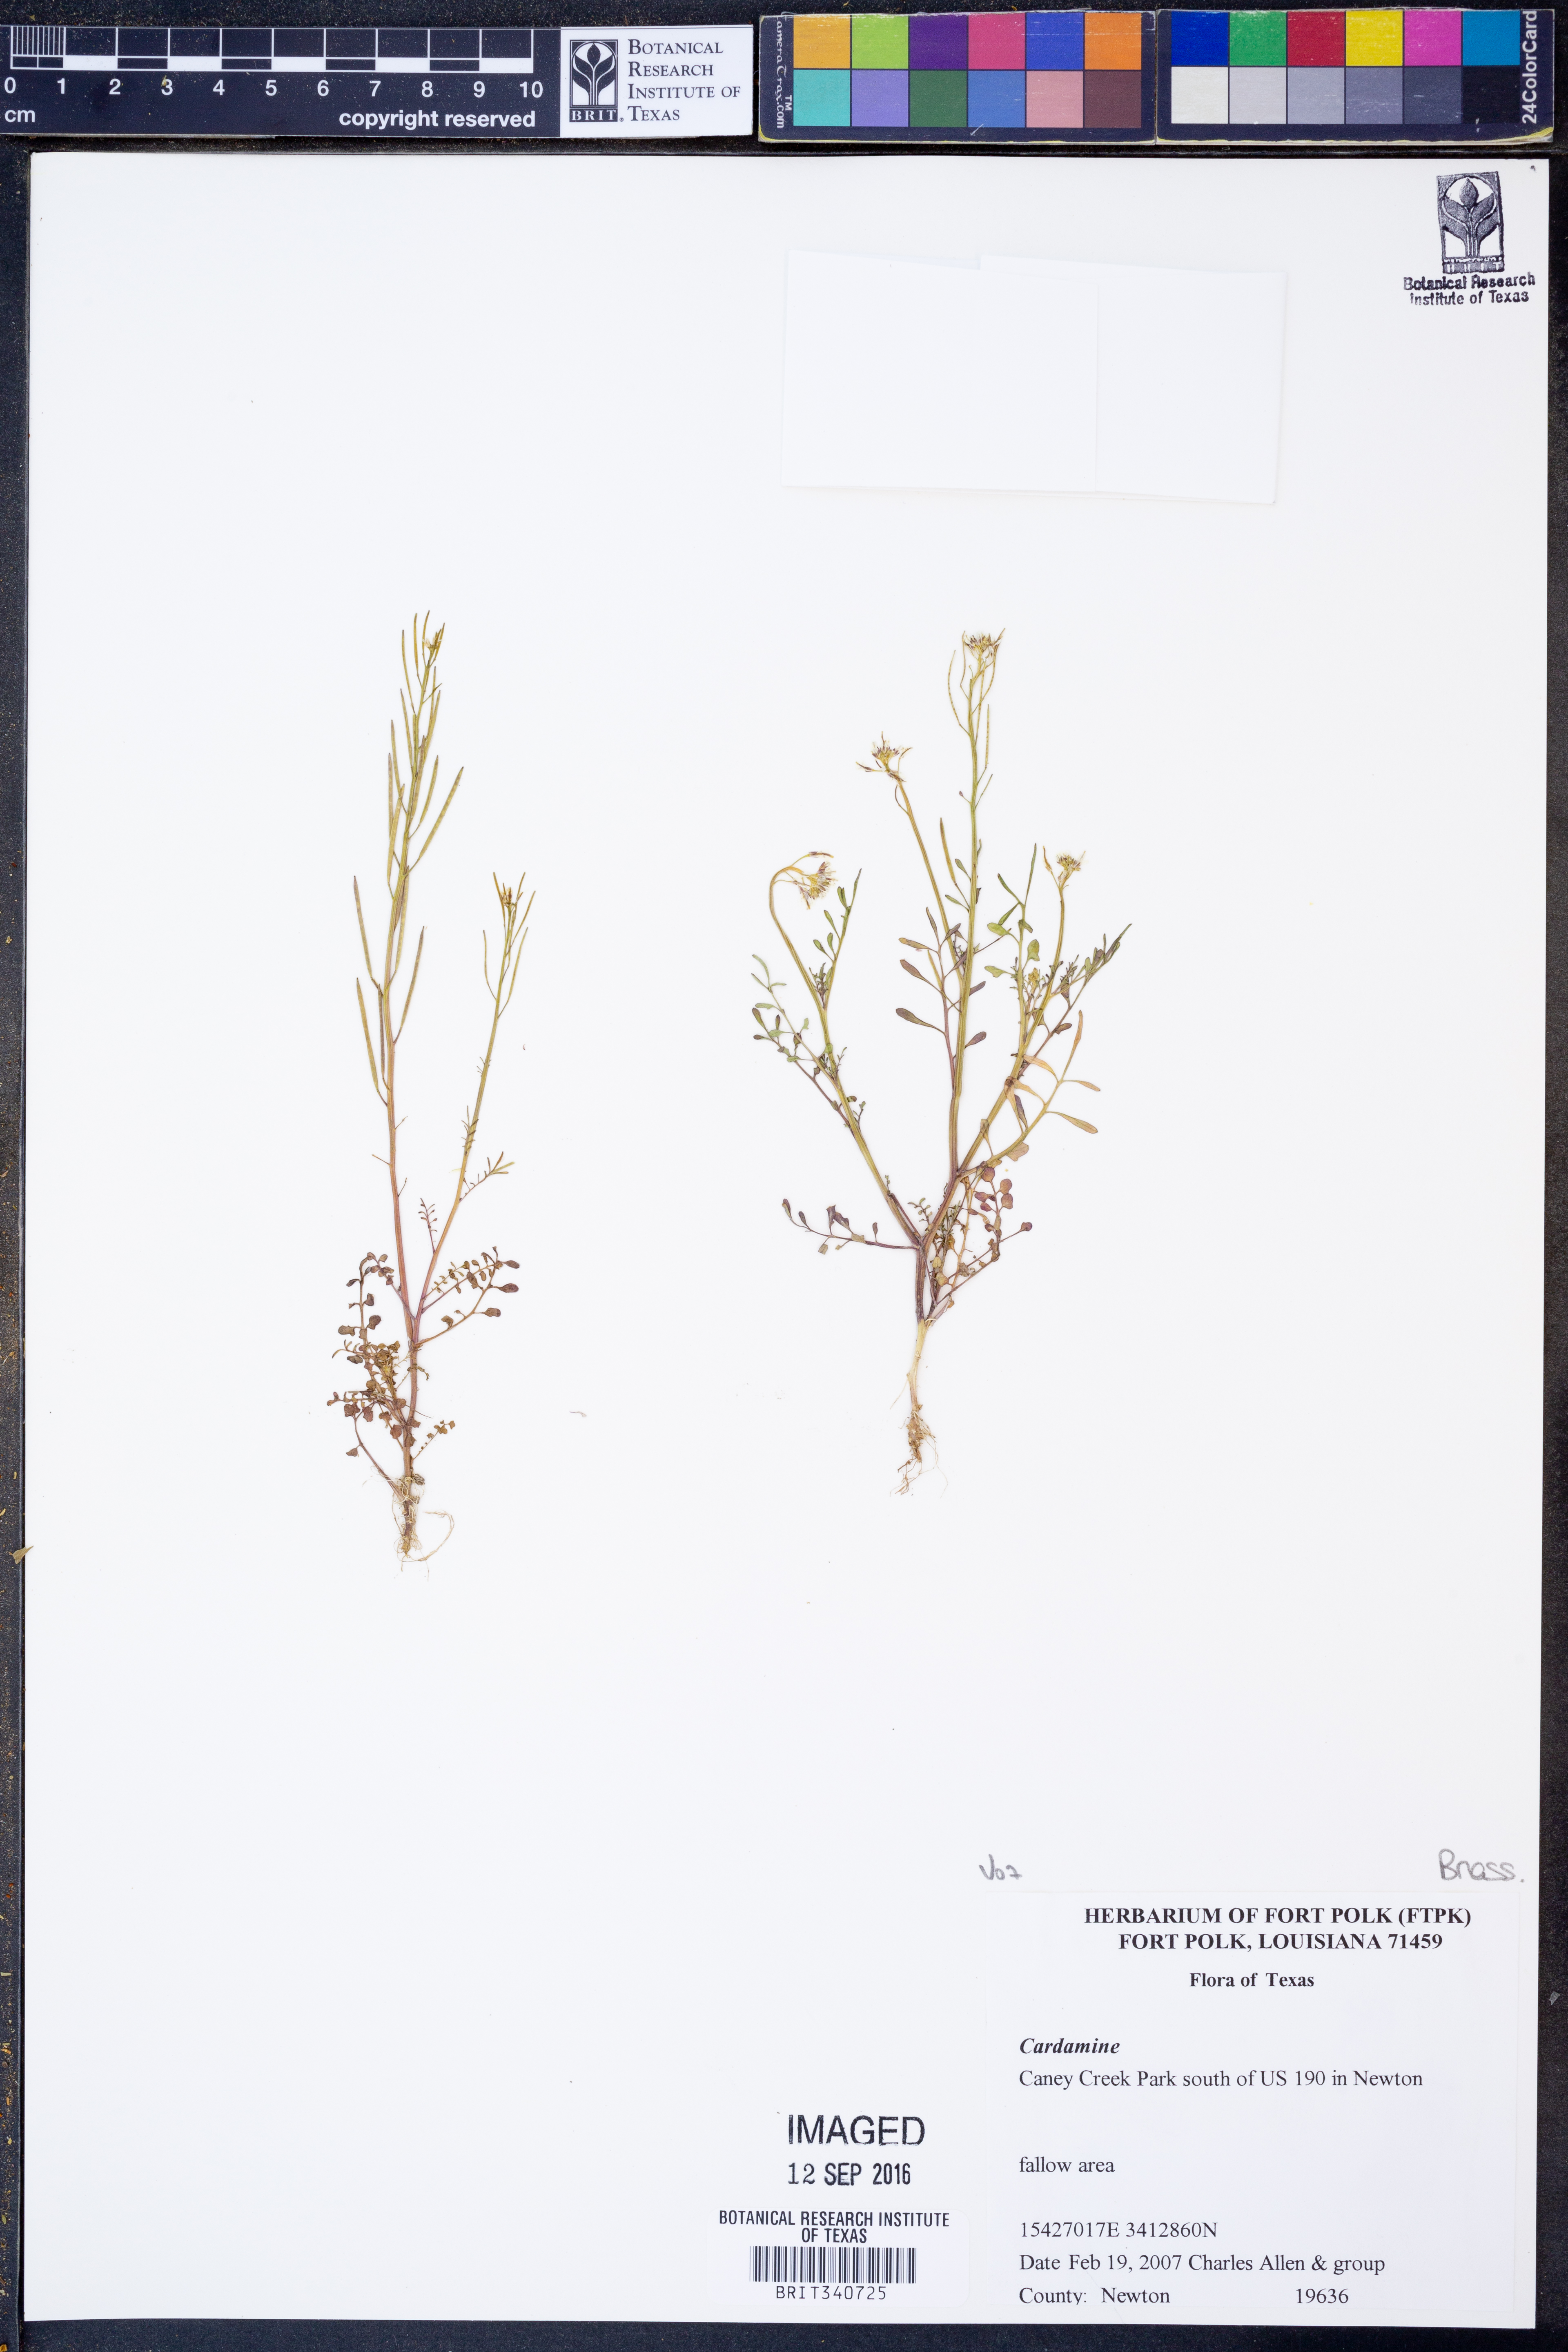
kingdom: Plantae
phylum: Tracheophyta
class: Magnoliopsida
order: Brassicales
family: Brassicaceae
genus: Cardamine
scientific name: Cardamine
